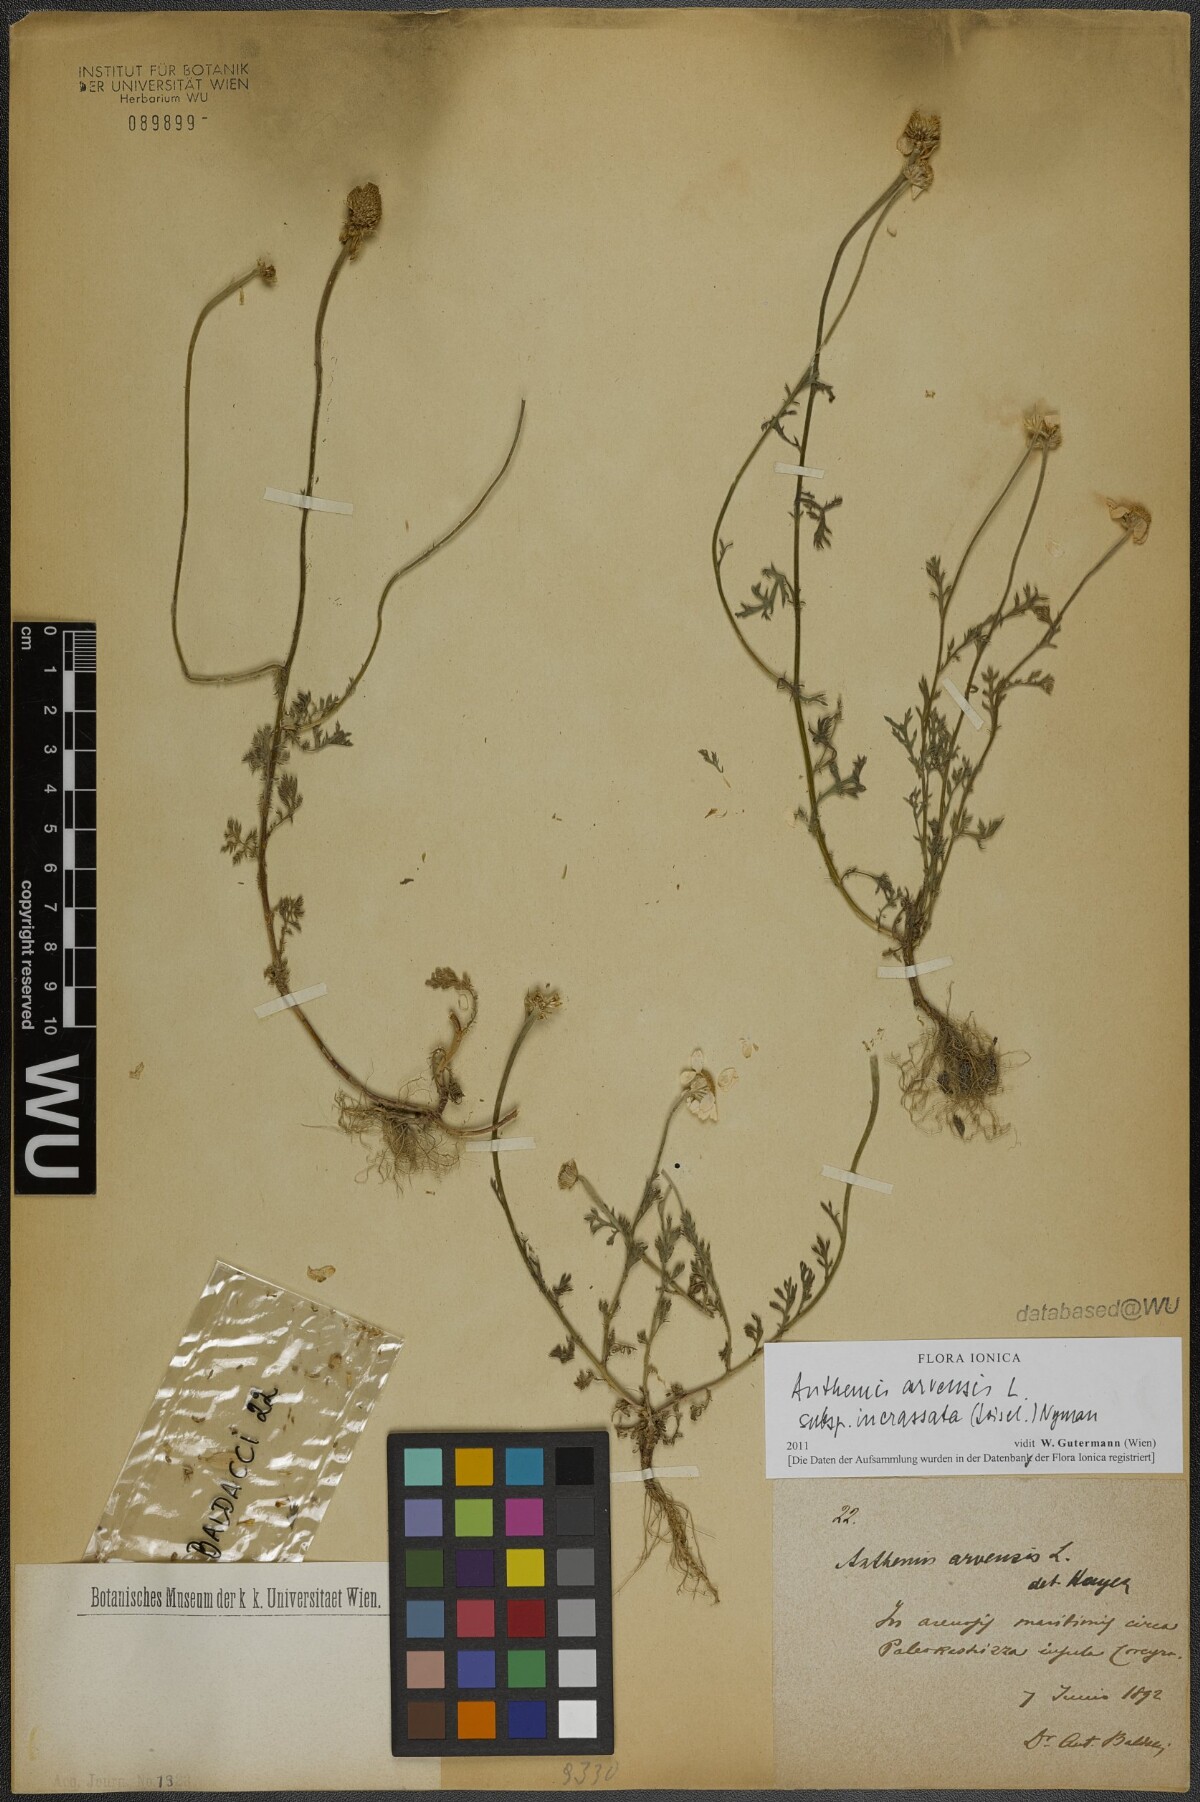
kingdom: Plantae
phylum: Tracheophyta
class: Magnoliopsida
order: Asterales
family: Asteraceae
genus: Anthemis
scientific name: Anthemis arvensis
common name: Corn chamomile
